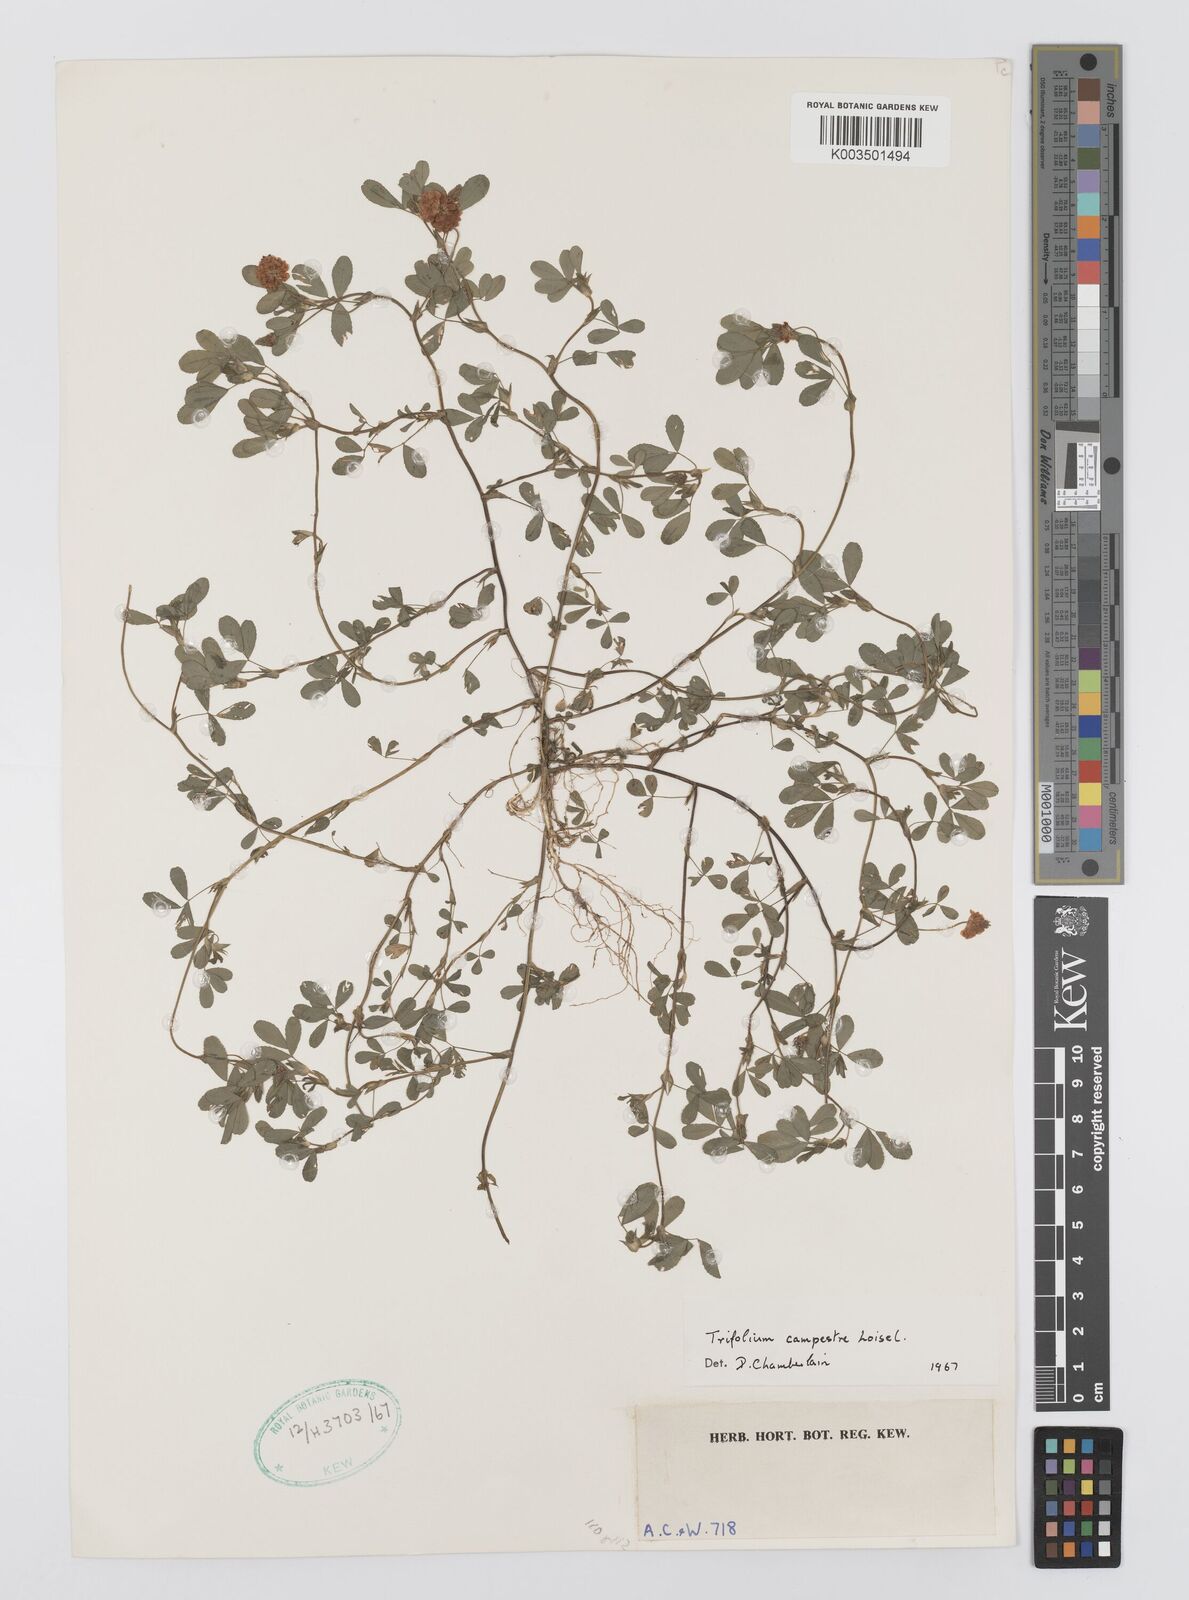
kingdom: Plantae
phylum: Tracheophyta
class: Magnoliopsida
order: Fabales
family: Fabaceae
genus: Trifolium
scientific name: Trifolium campestre
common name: Field clover
